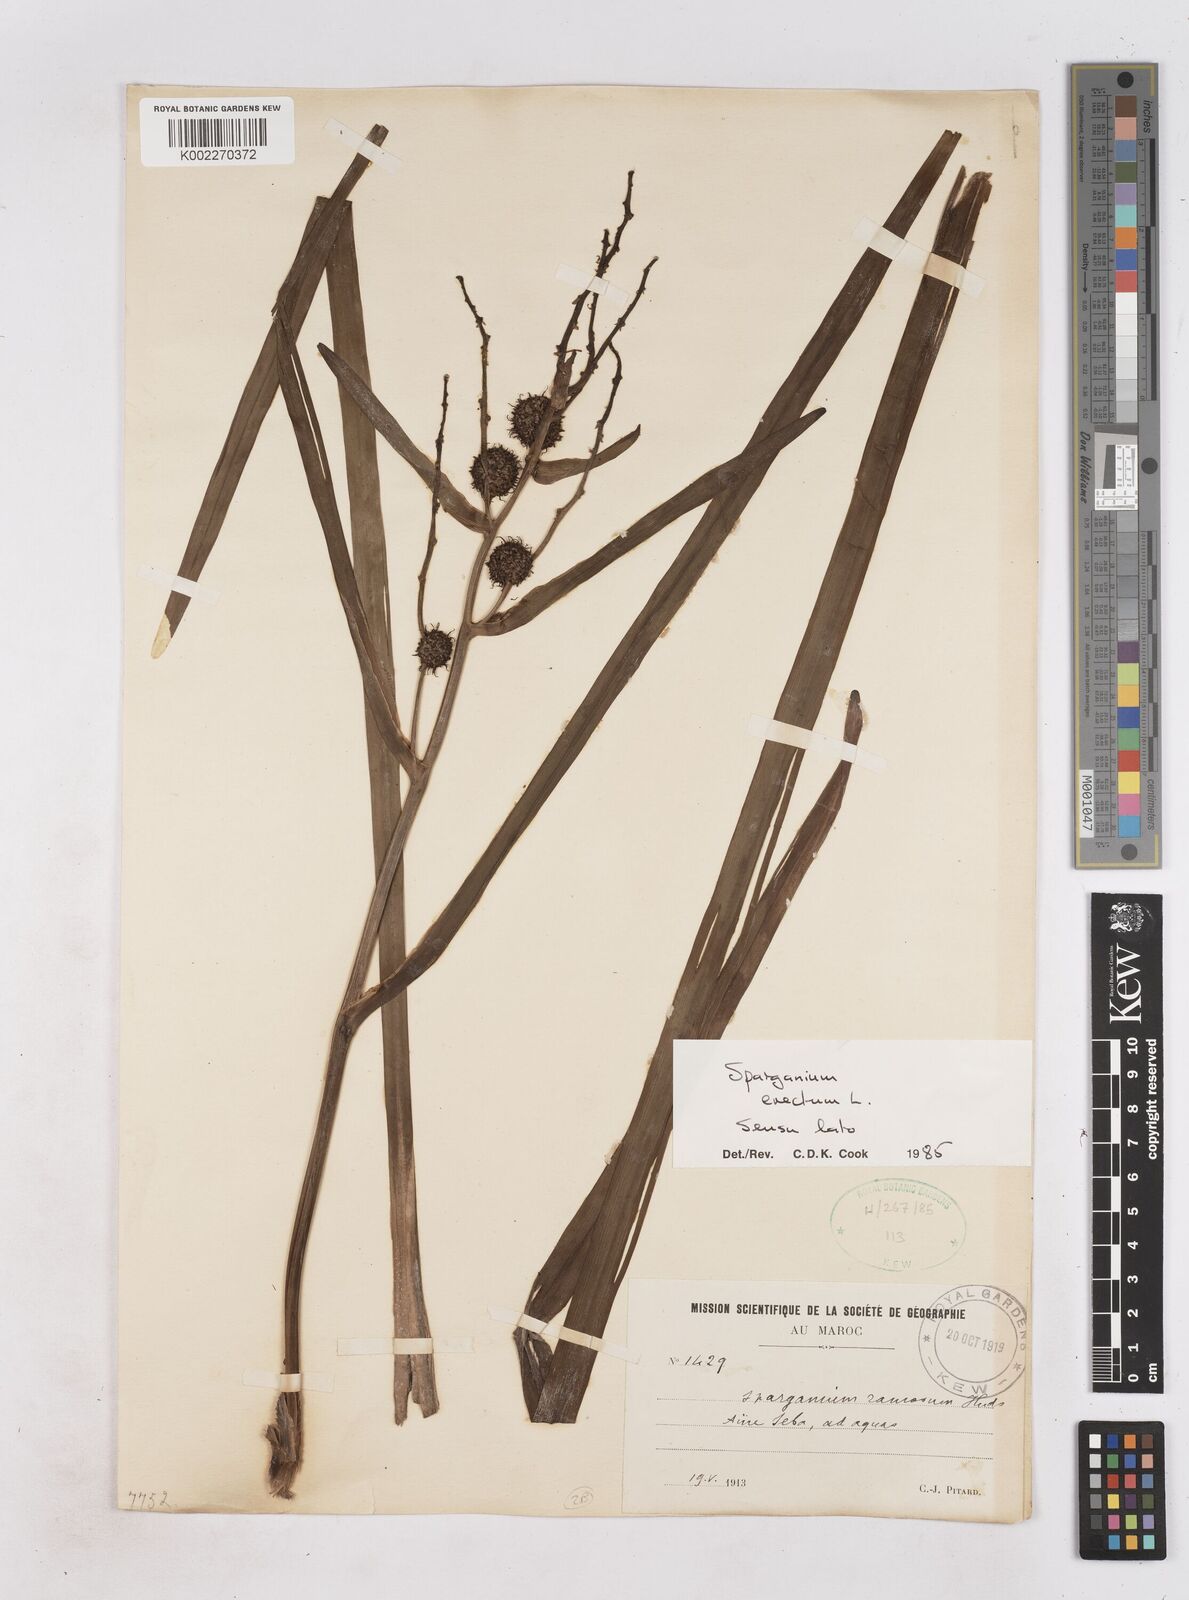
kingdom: Plantae
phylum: Tracheophyta
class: Liliopsida
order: Poales
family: Typhaceae
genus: Sparganium
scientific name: Sparganium erectum
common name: Branched bur-reed
